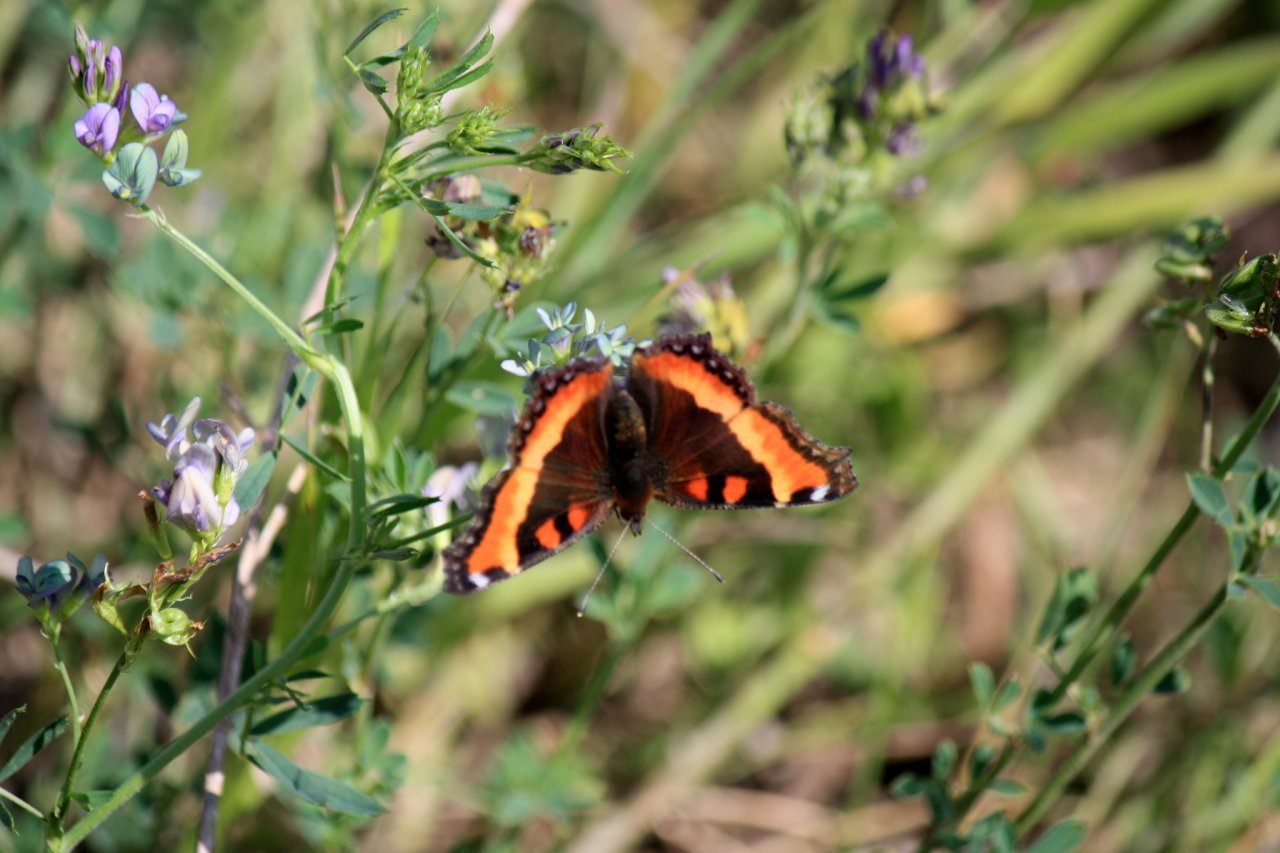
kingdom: Animalia
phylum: Arthropoda
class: Insecta
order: Lepidoptera
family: Nymphalidae
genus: Aglais
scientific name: Aglais milberti
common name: Milbert's Tortoiseshell
